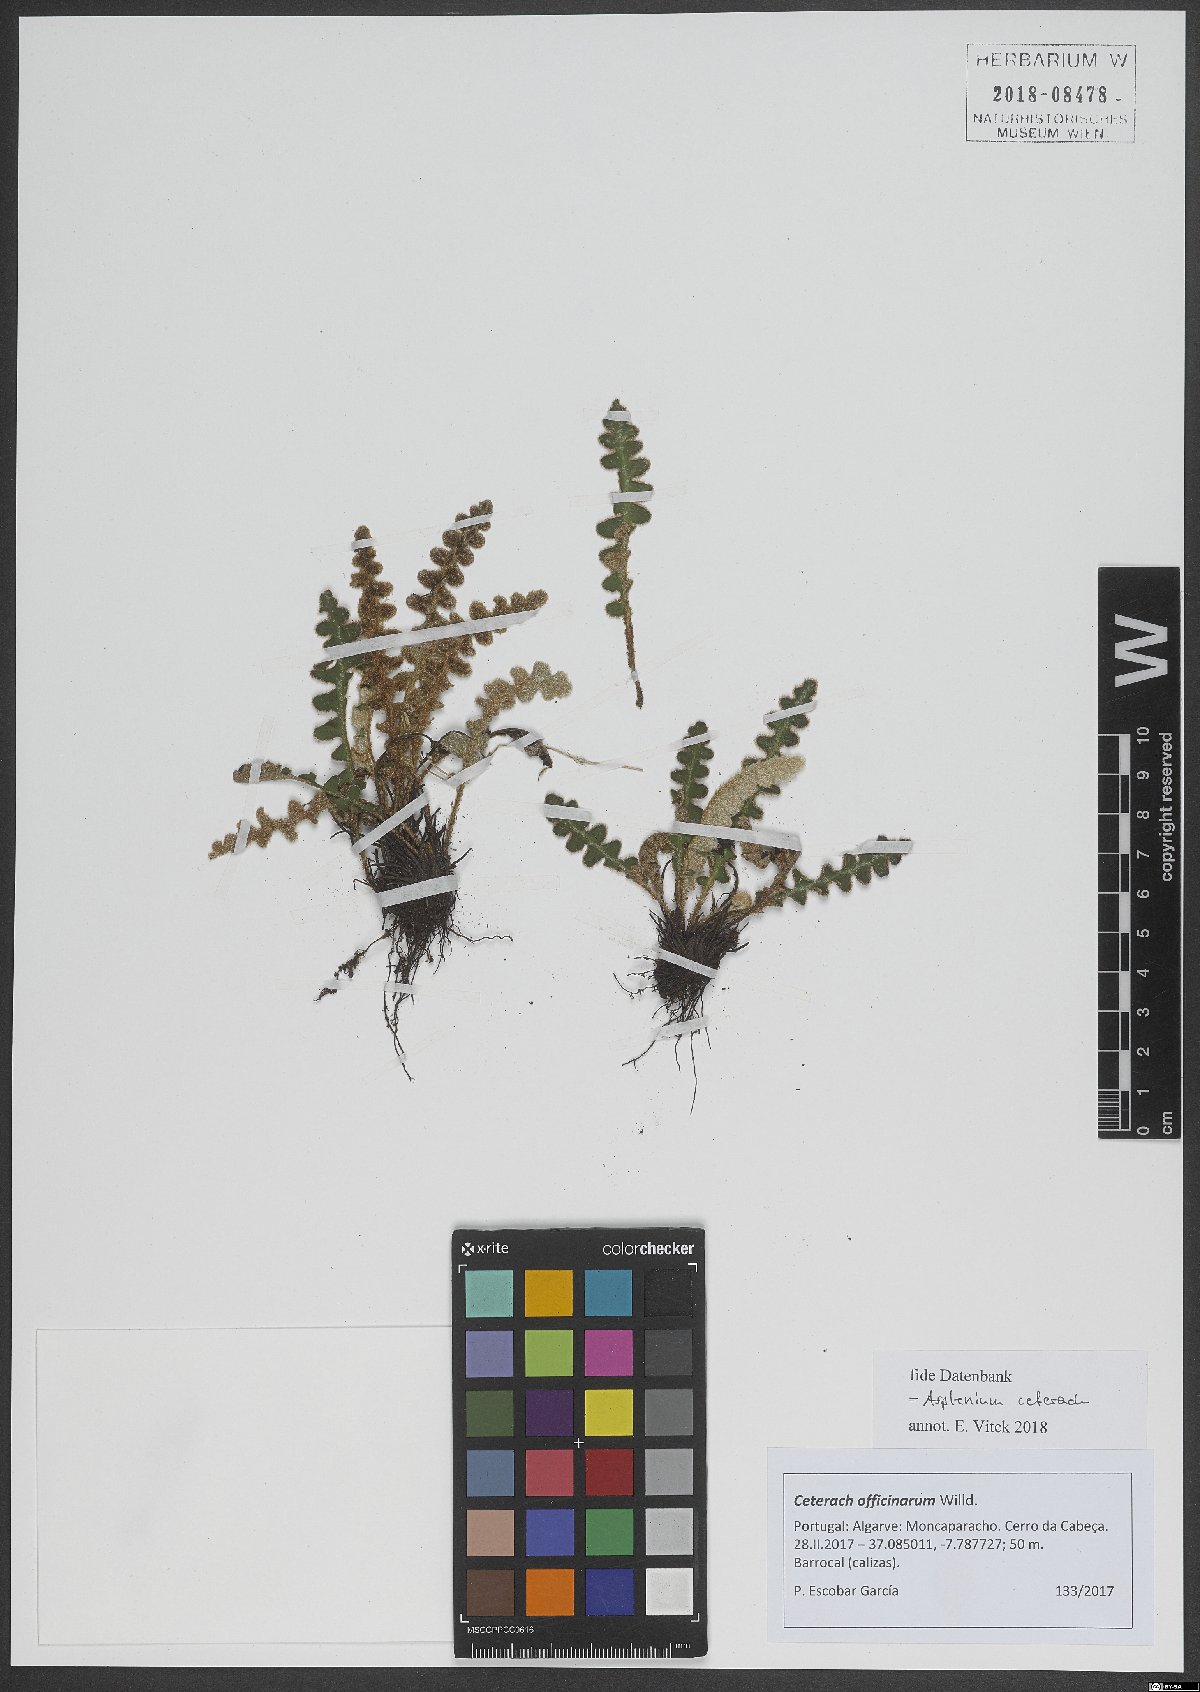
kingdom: Plantae
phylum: Tracheophyta
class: Polypodiopsida
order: Polypodiales
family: Aspleniaceae
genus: Asplenium
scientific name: Asplenium ceterach
